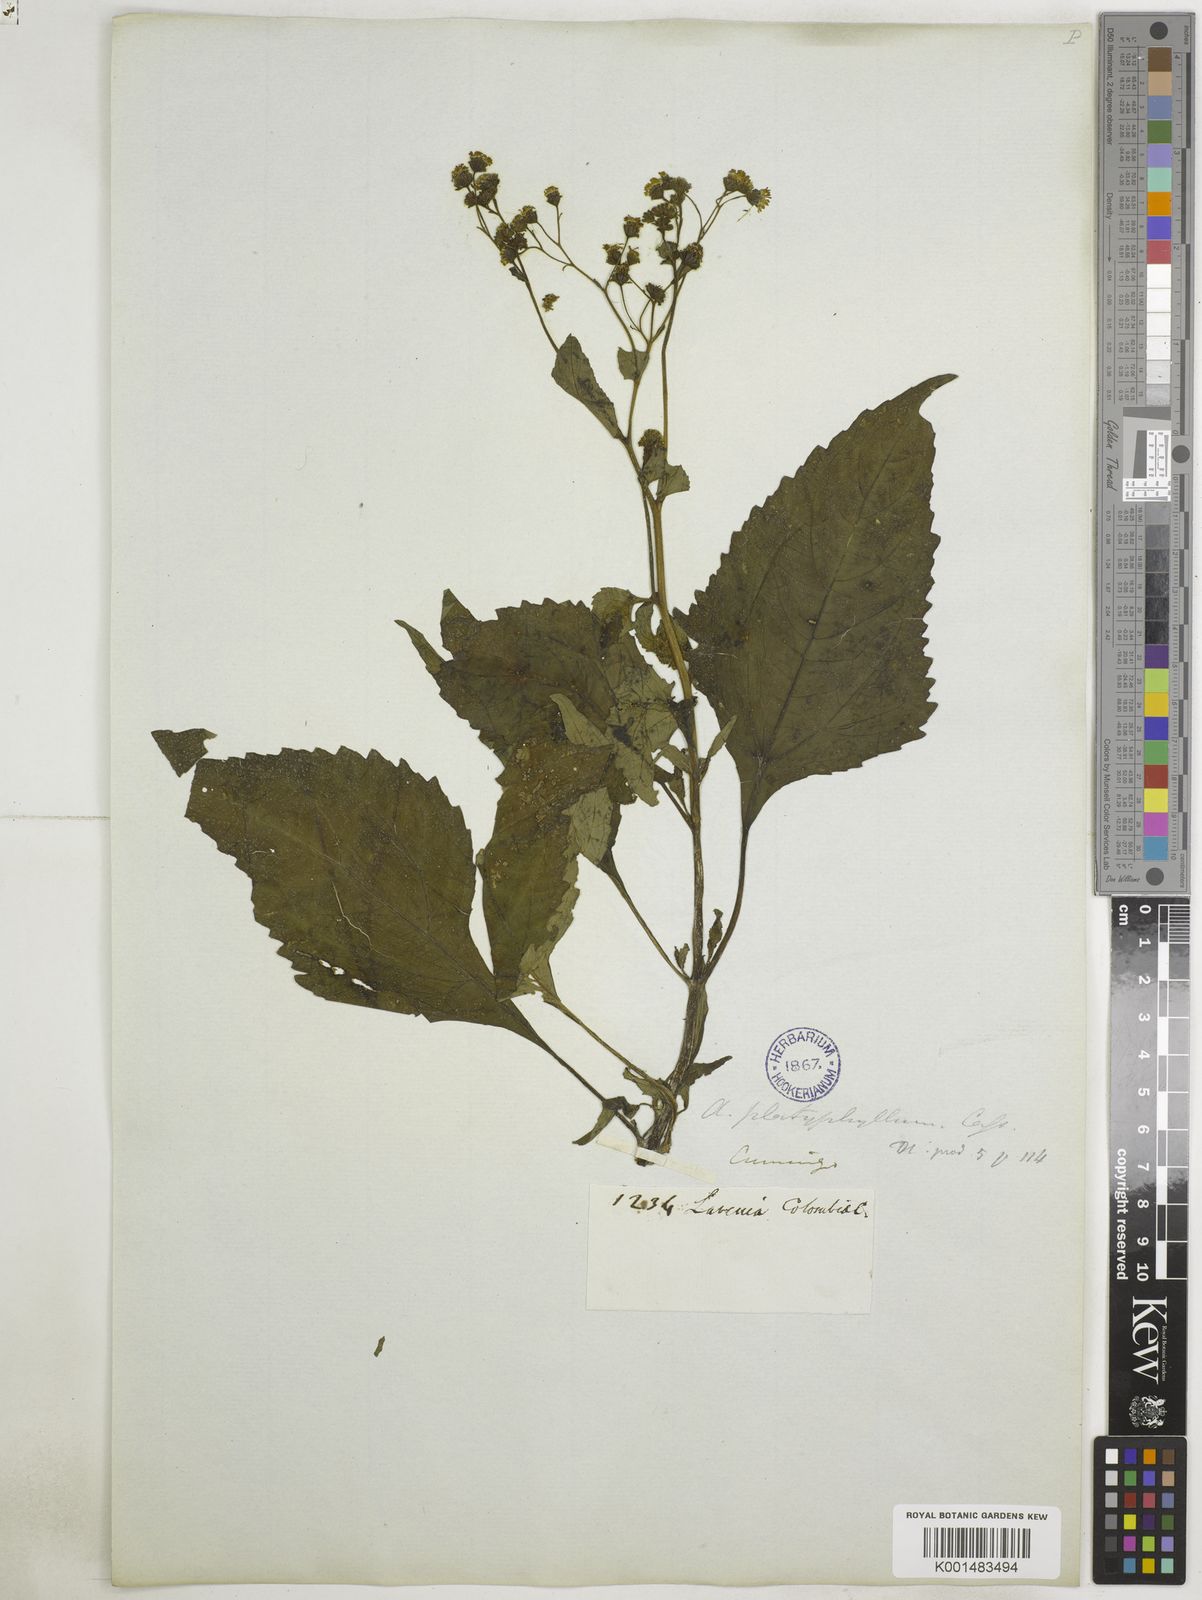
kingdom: Plantae
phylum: Tracheophyta
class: Magnoliopsida
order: Asterales
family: Asteraceae
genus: Adenostemma
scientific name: Adenostemma platyphyllum
